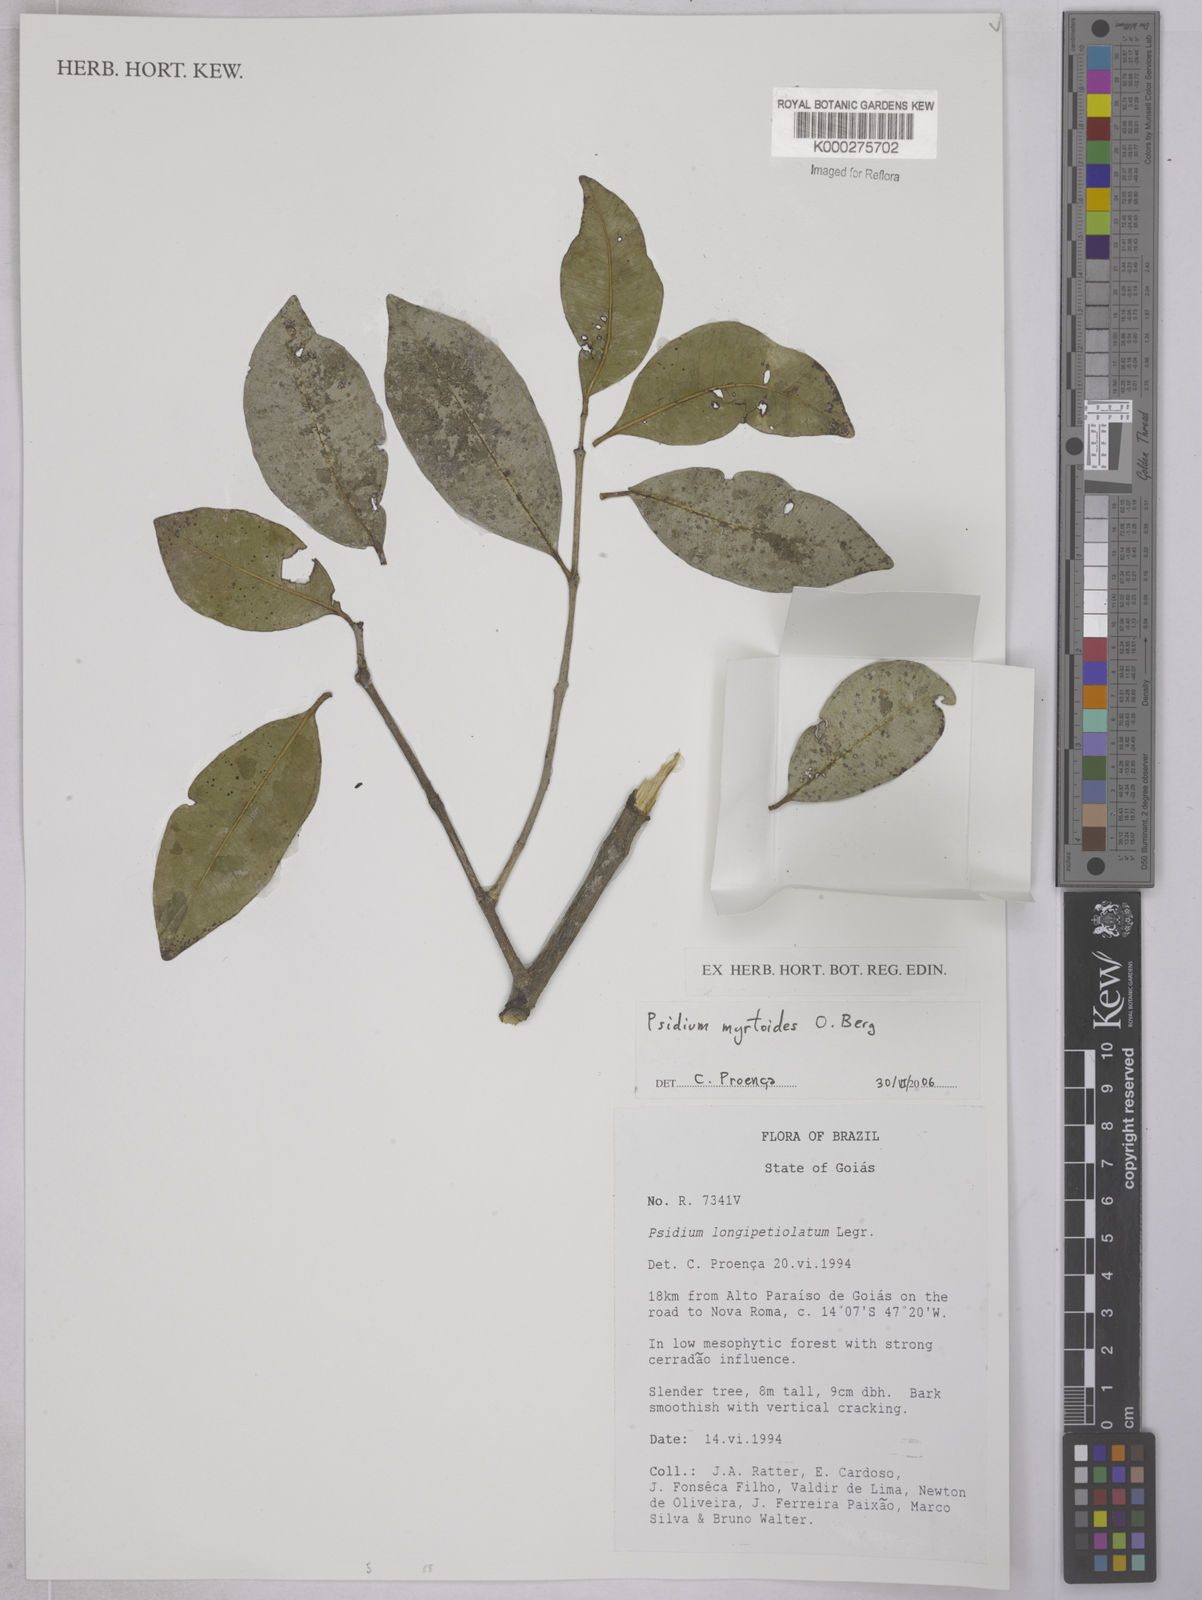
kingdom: Plantae
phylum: Tracheophyta
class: Magnoliopsida
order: Myrtales
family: Myrtaceae
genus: Psidium
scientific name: Psidium myrtoides
